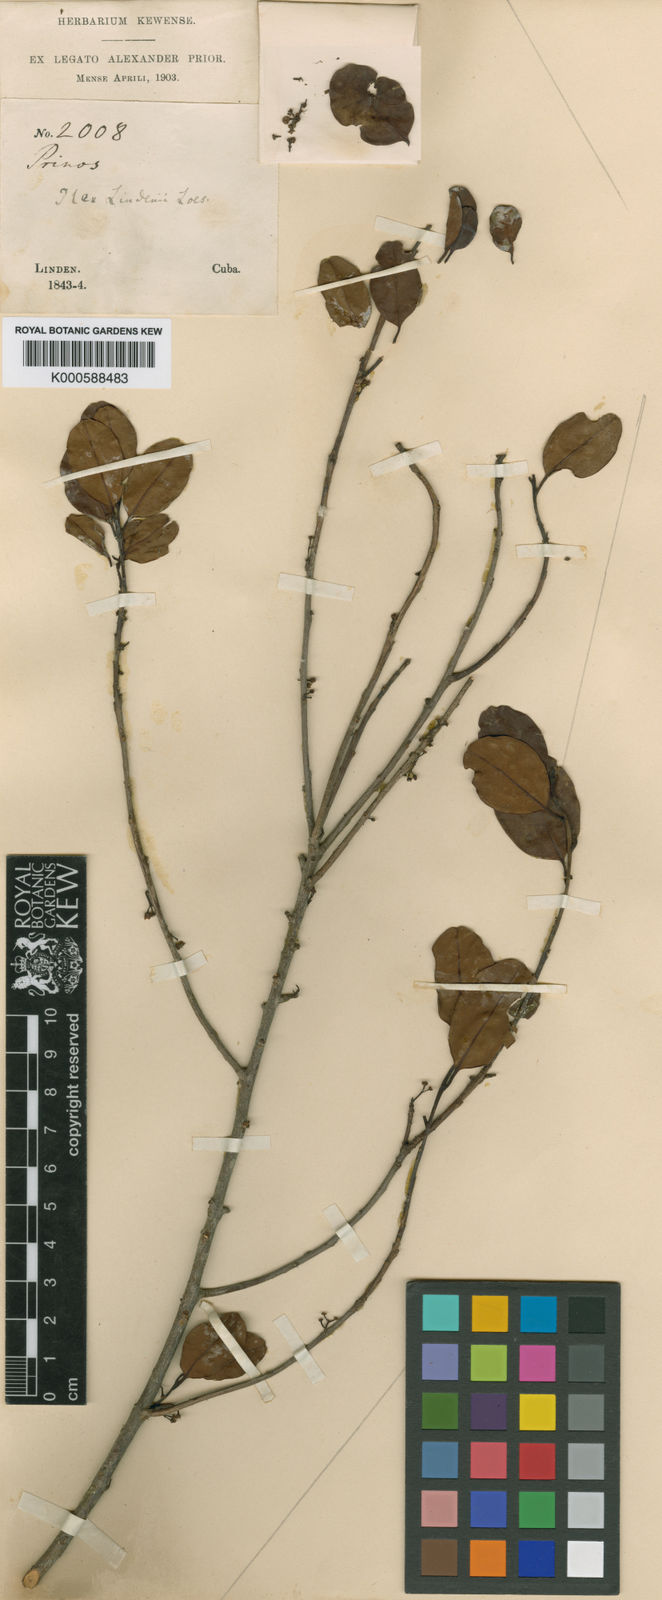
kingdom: Plantae
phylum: Tracheophyta
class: Magnoliopsida
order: Aquifoliales
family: Aquifoliaceae
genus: Ilex
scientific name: Ilex cubana
